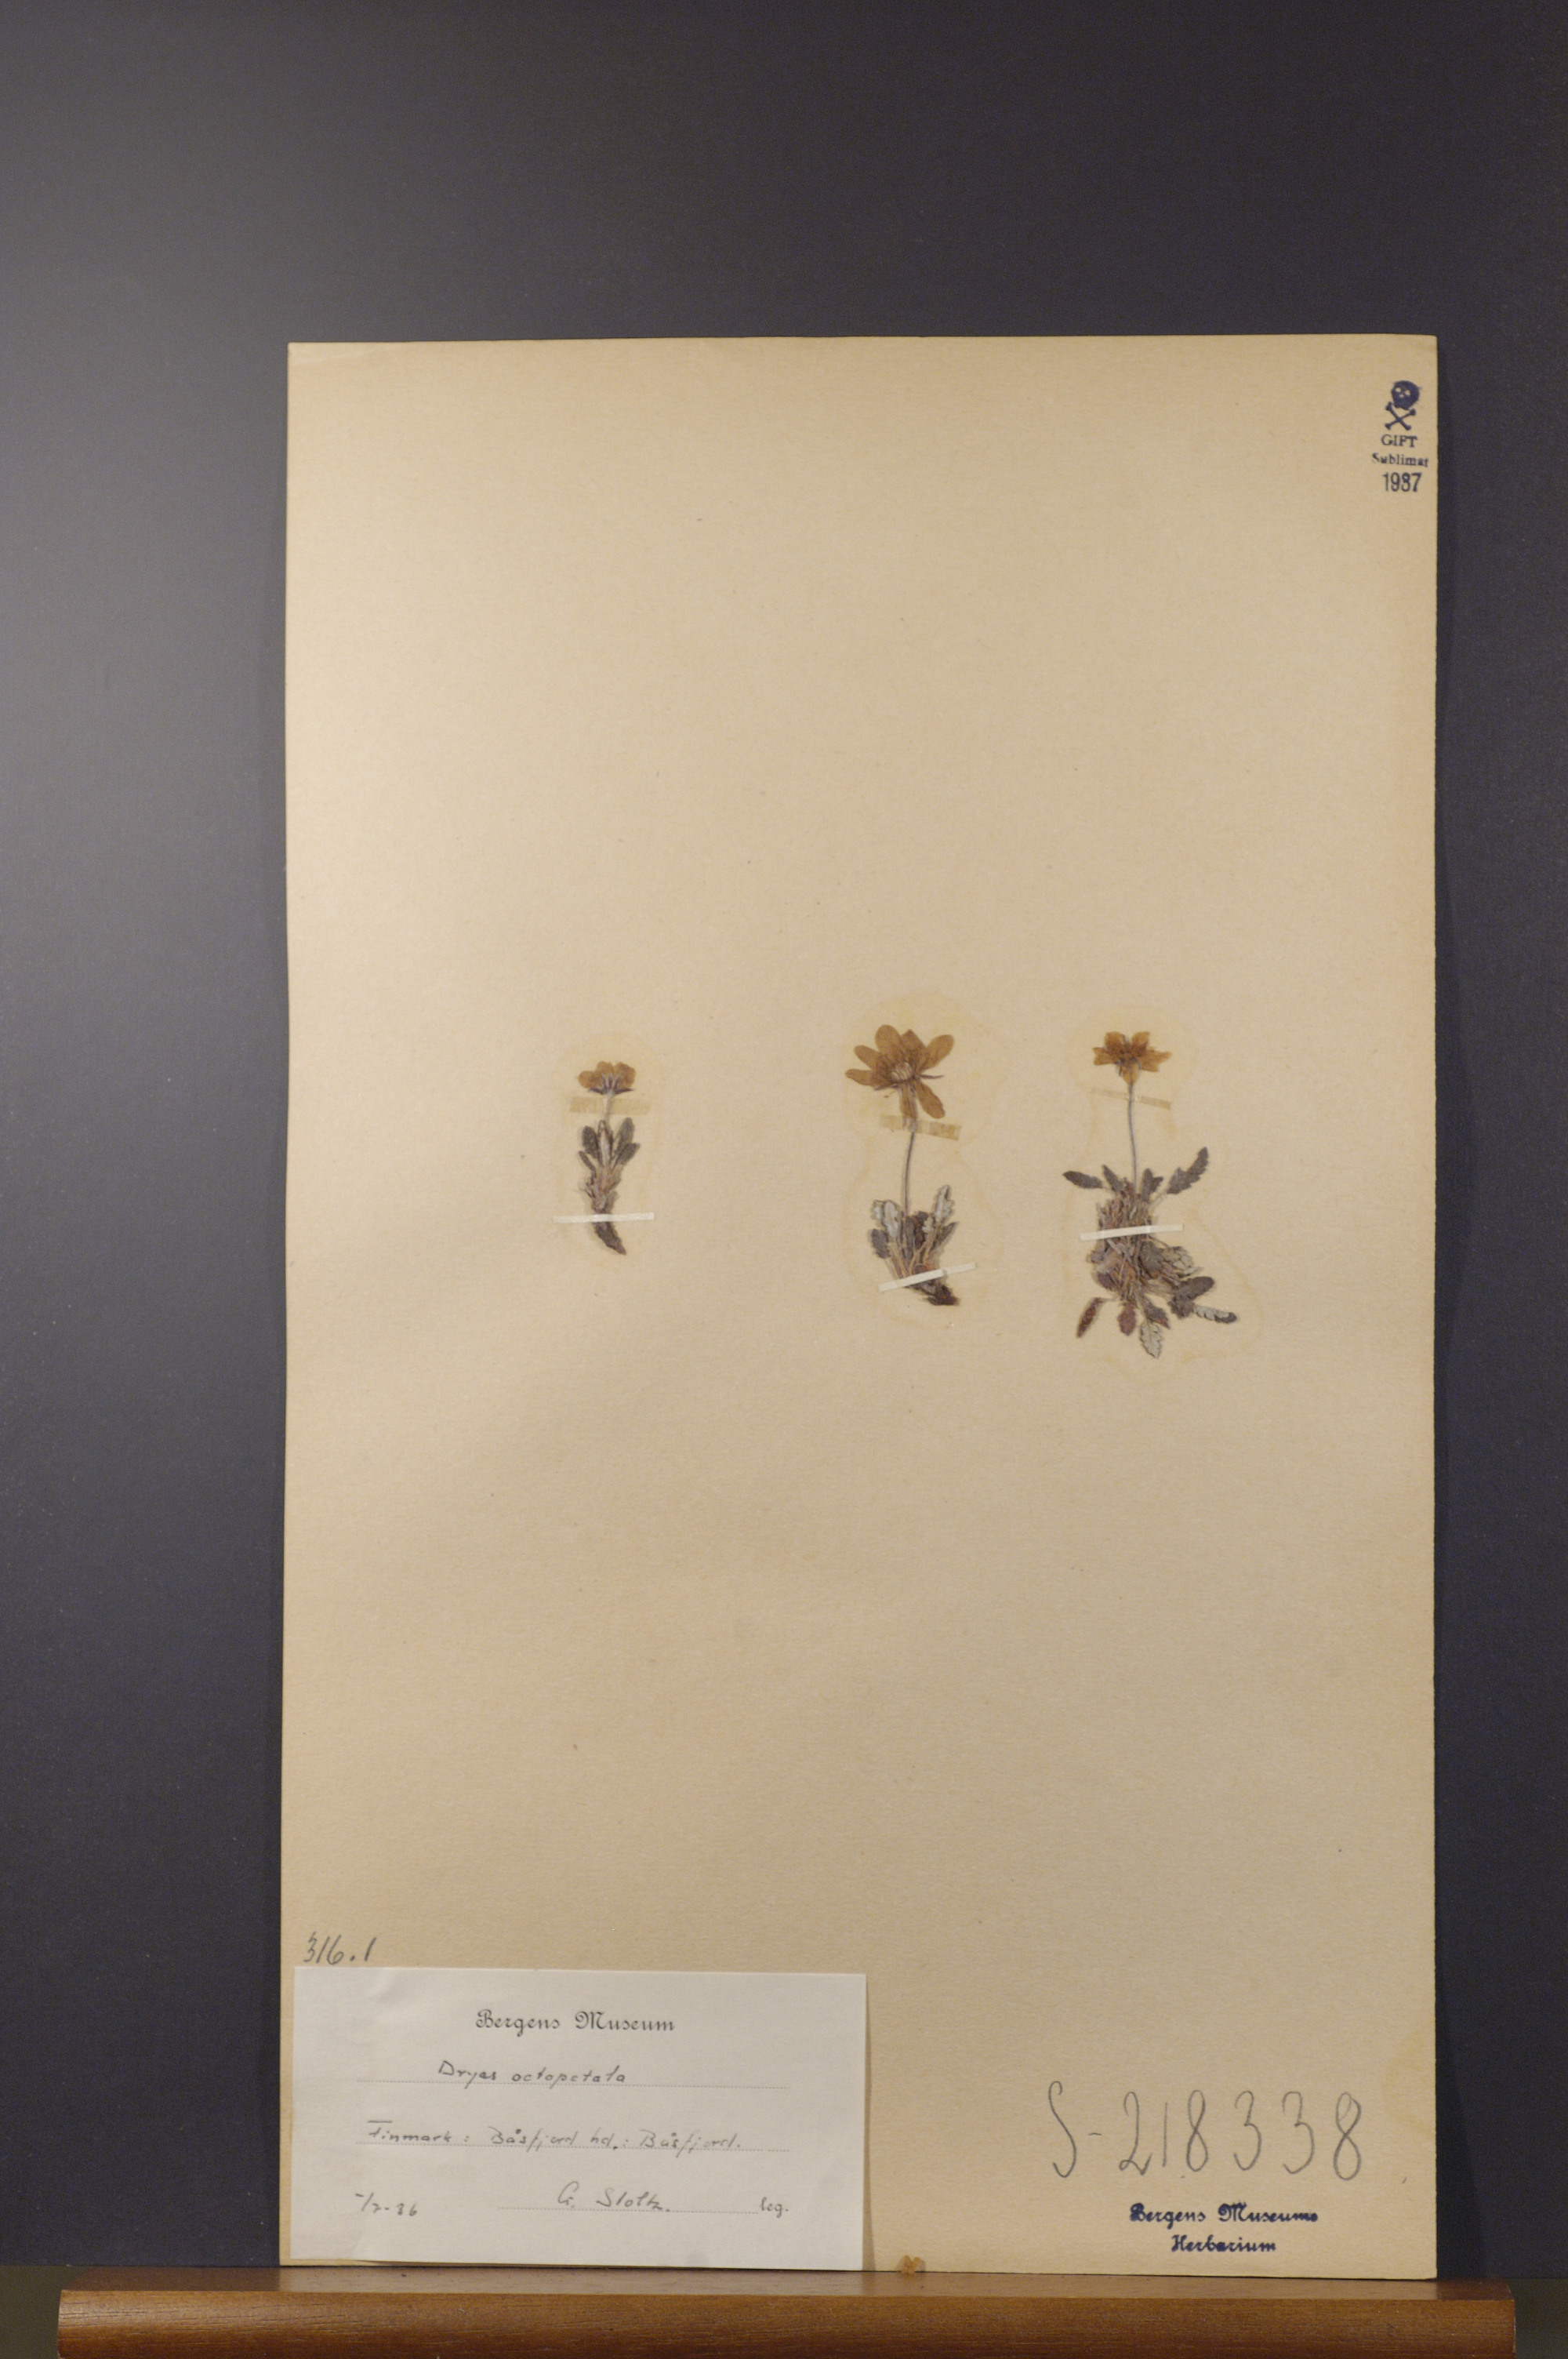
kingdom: Plantae
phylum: Tracheophyta
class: Magnoliopsida
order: Rosales
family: Rosaceae
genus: Dryas
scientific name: Dryas octopetala
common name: Eight-petal mountain-avens
